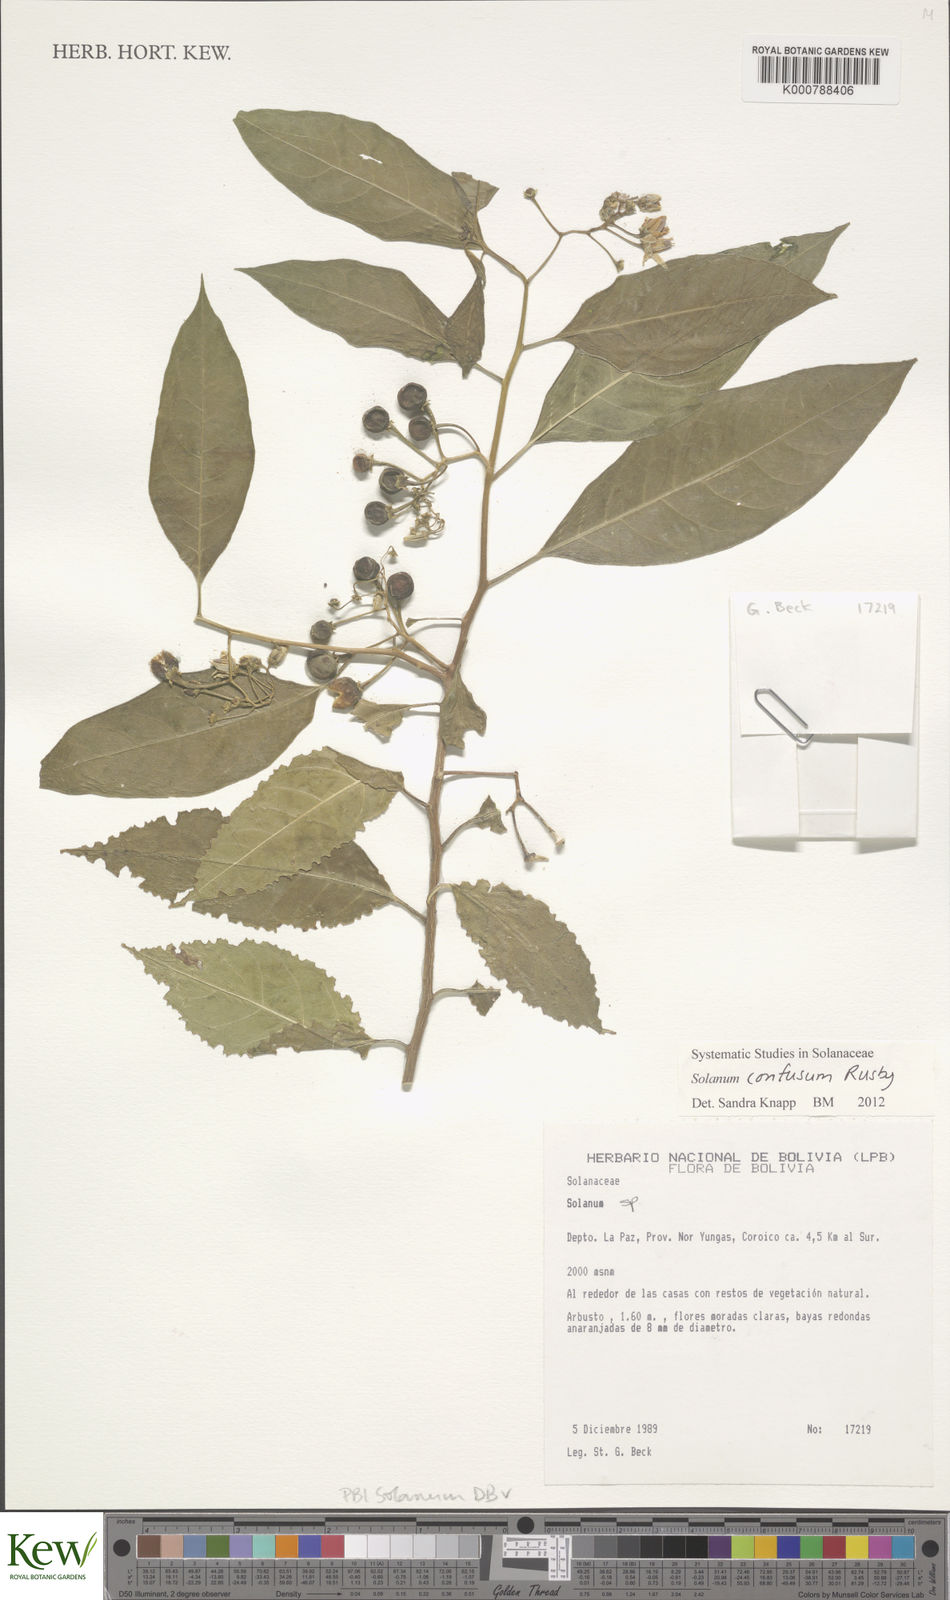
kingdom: Plantae
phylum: Tracheophyta
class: Magnoliopsida
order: Solanales
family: Solanaceae
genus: Solanum
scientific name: Solanum confusum
